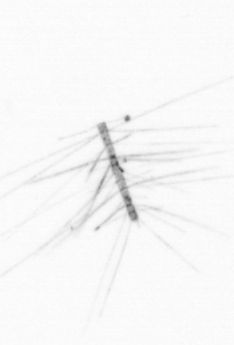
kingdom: Chromista
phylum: Ochrophyta
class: Bacillariophyceae
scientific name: Bacillariophyceae
